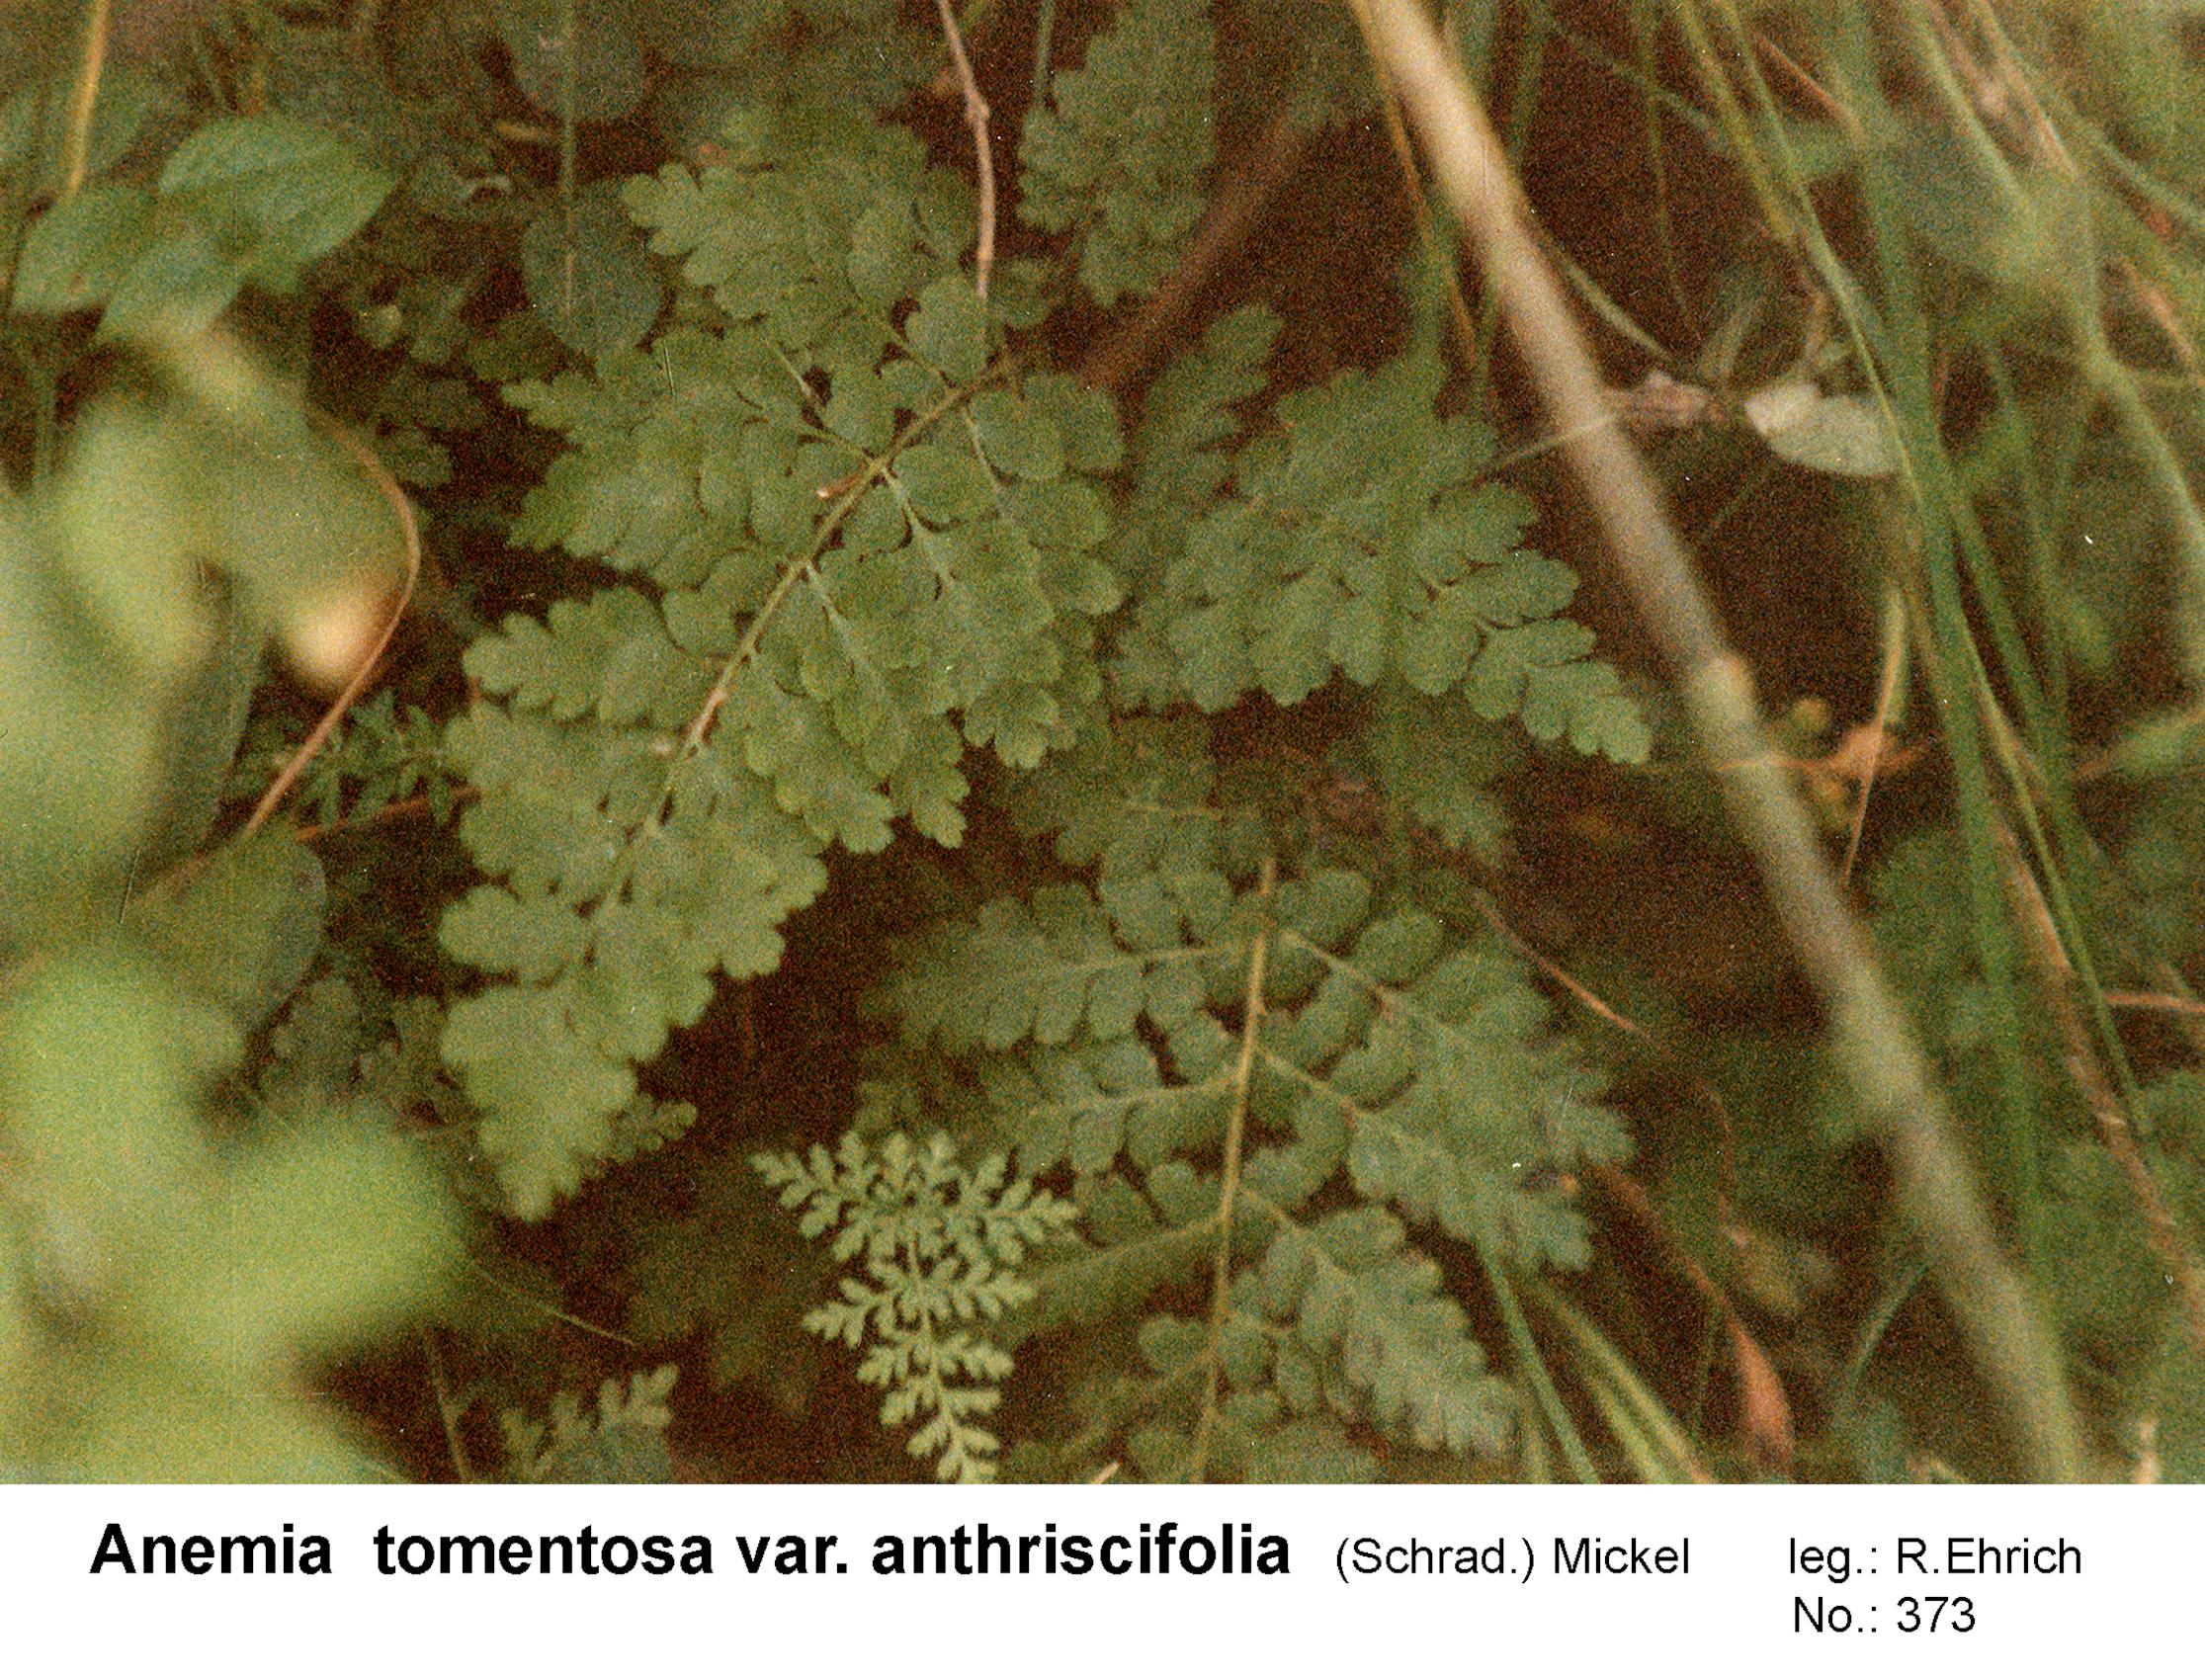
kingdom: Plantae
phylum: Tracheophyta
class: Polypodiopsida
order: Schizaeales
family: Anemiaceae
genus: Anemia
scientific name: Anemia tomentosa
